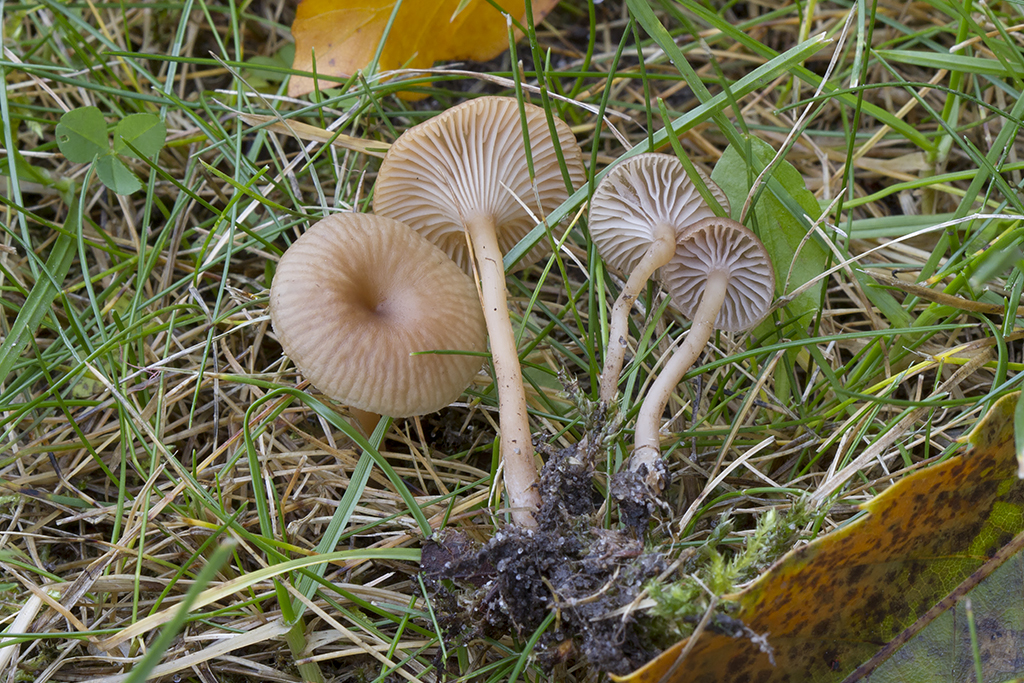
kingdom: Fungi
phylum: Basidiomycota
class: Agaricomycetes
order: Agaricales
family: Tricholomataceae
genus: Omphalina
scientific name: Omphalina pyxidata
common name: rødbrun navlehat
